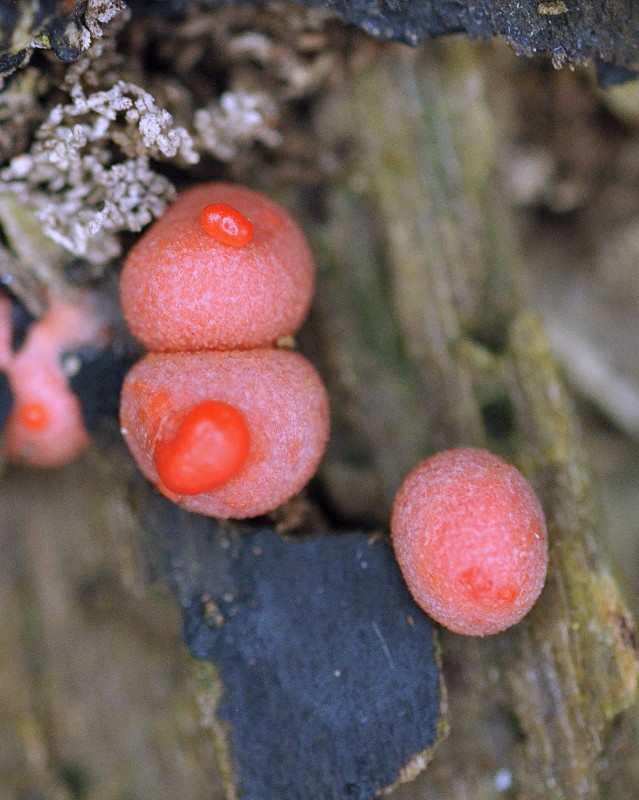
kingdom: Protozoa
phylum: Mycetozoa
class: Myxomycetes
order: Cribrariales
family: Tubiferaceae
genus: Lycogala
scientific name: Lycogala epidendrum
